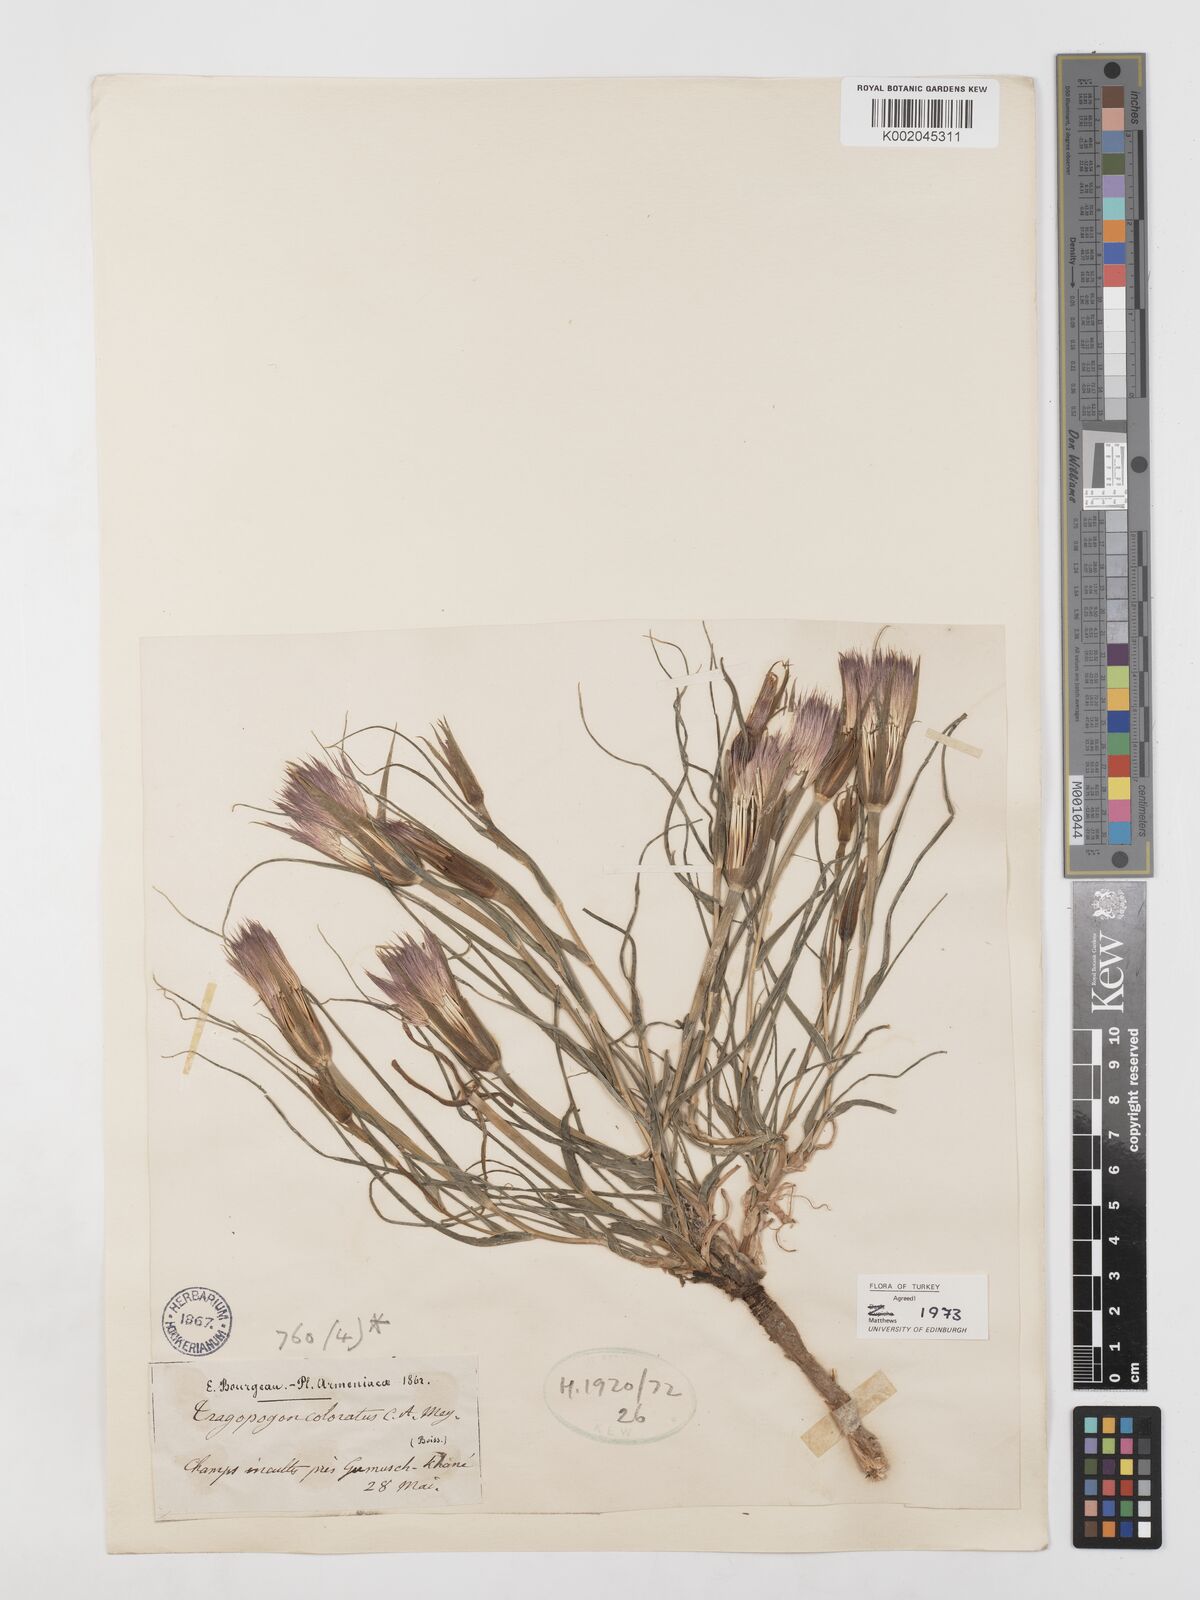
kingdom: Plantae
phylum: Tracheophyta
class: Magnoliopsida
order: Asterales
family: Asteraceae
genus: Tragopogon
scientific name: Tragopogon coloratus
